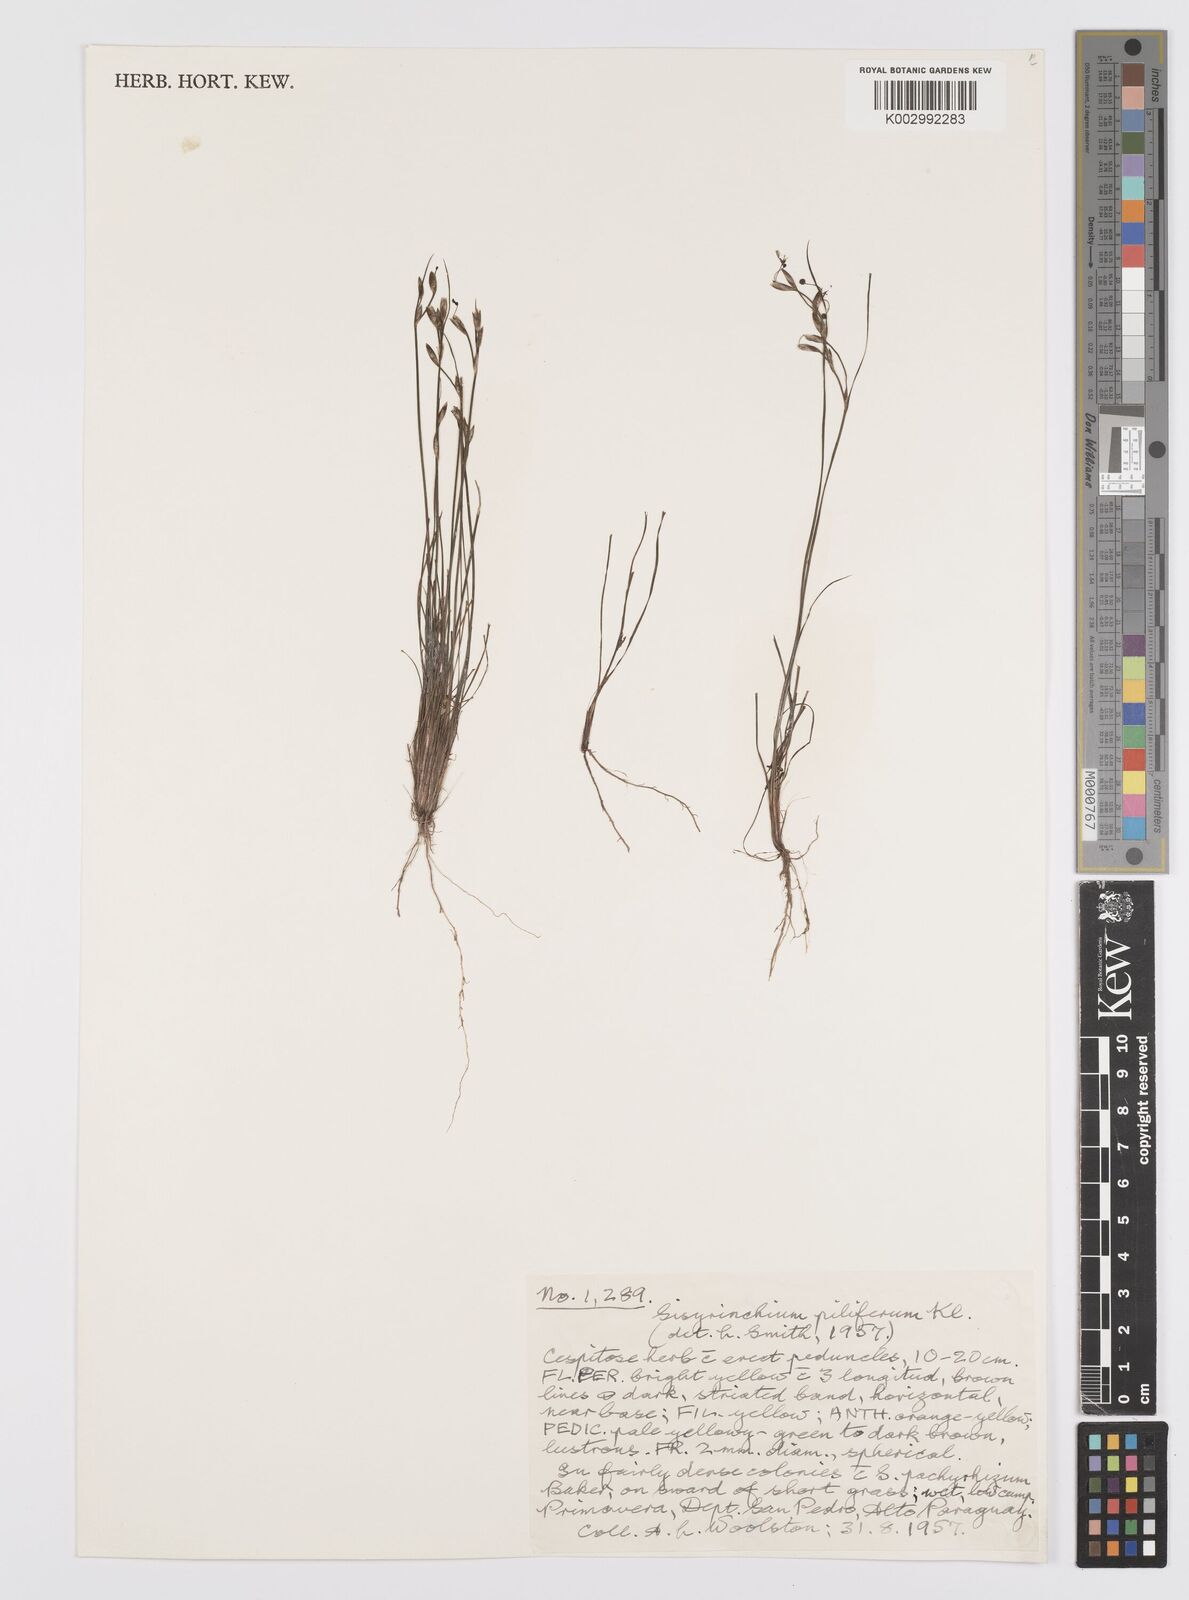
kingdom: Plantae
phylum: Tracheophyta
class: Liliopsida
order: Asparagales
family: Iridaceae
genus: Sisyrinchium
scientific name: Sisyrinchium commutatum
